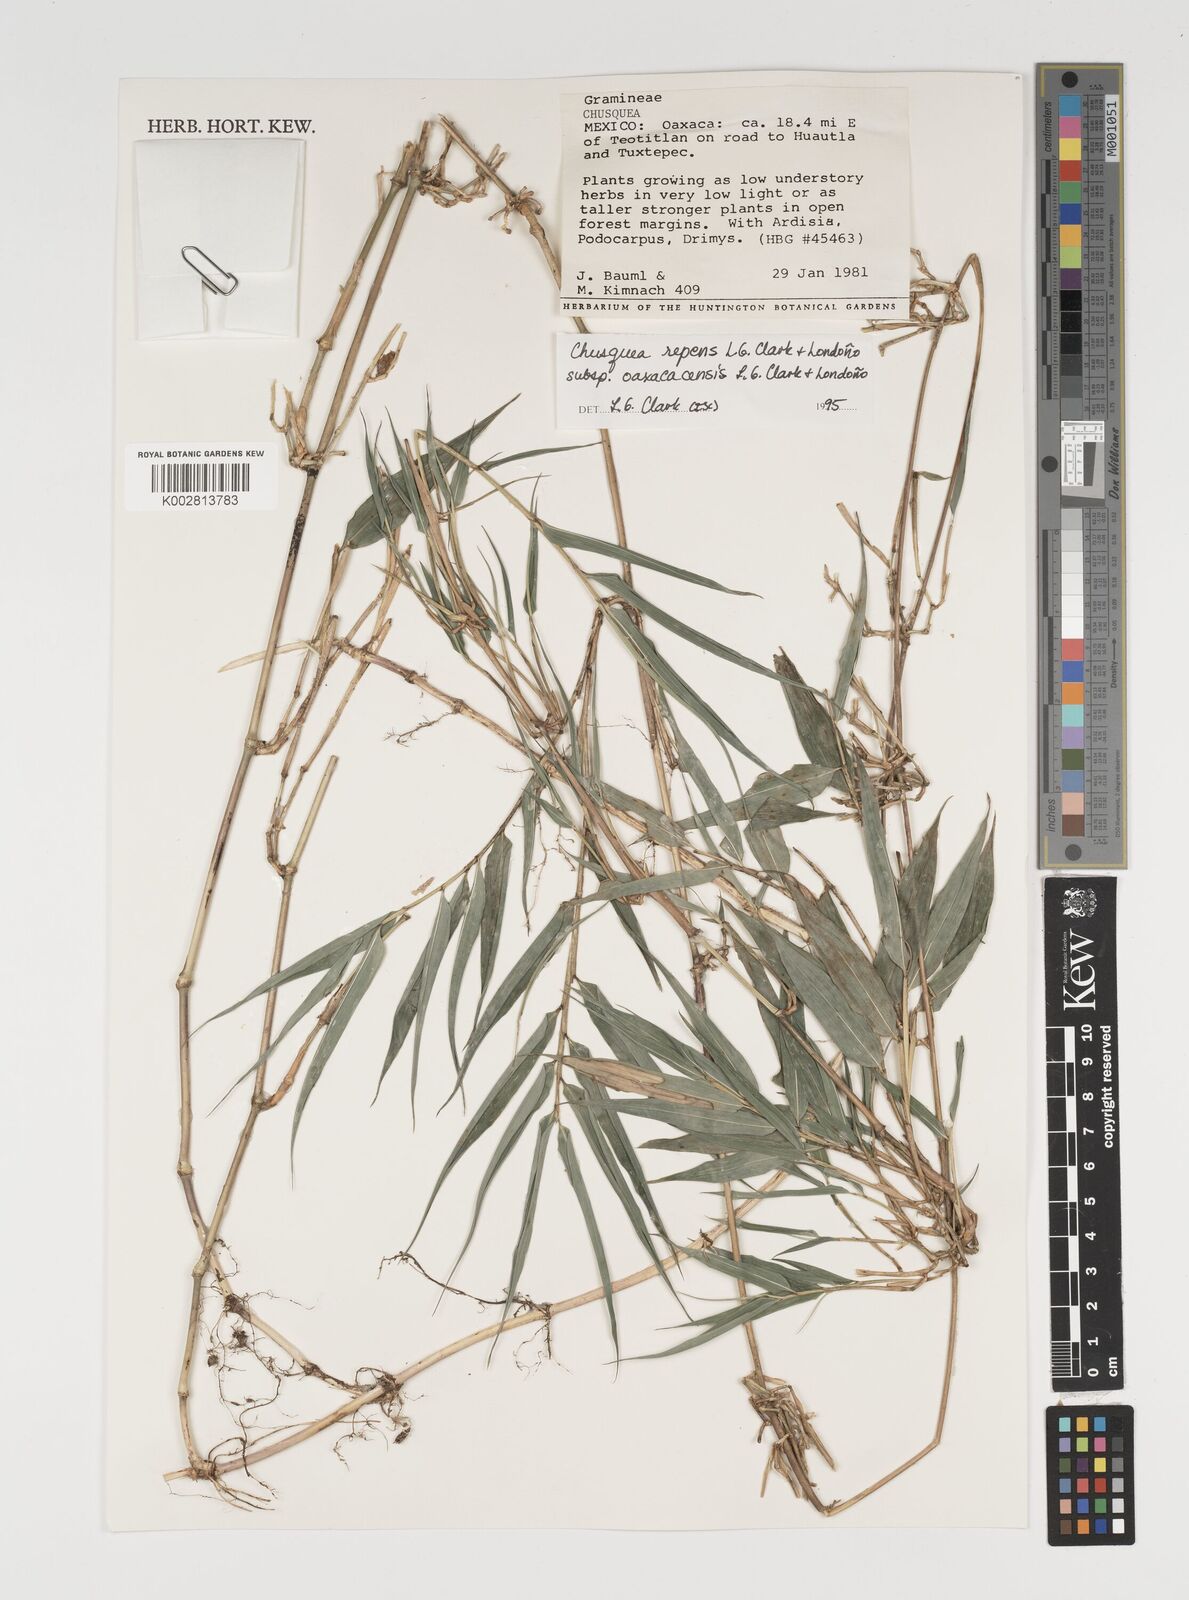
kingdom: Plantae
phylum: Tracheophyta
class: Liliopsida
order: Poales
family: Poaceae
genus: Chusquea
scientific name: Chusquea repens
